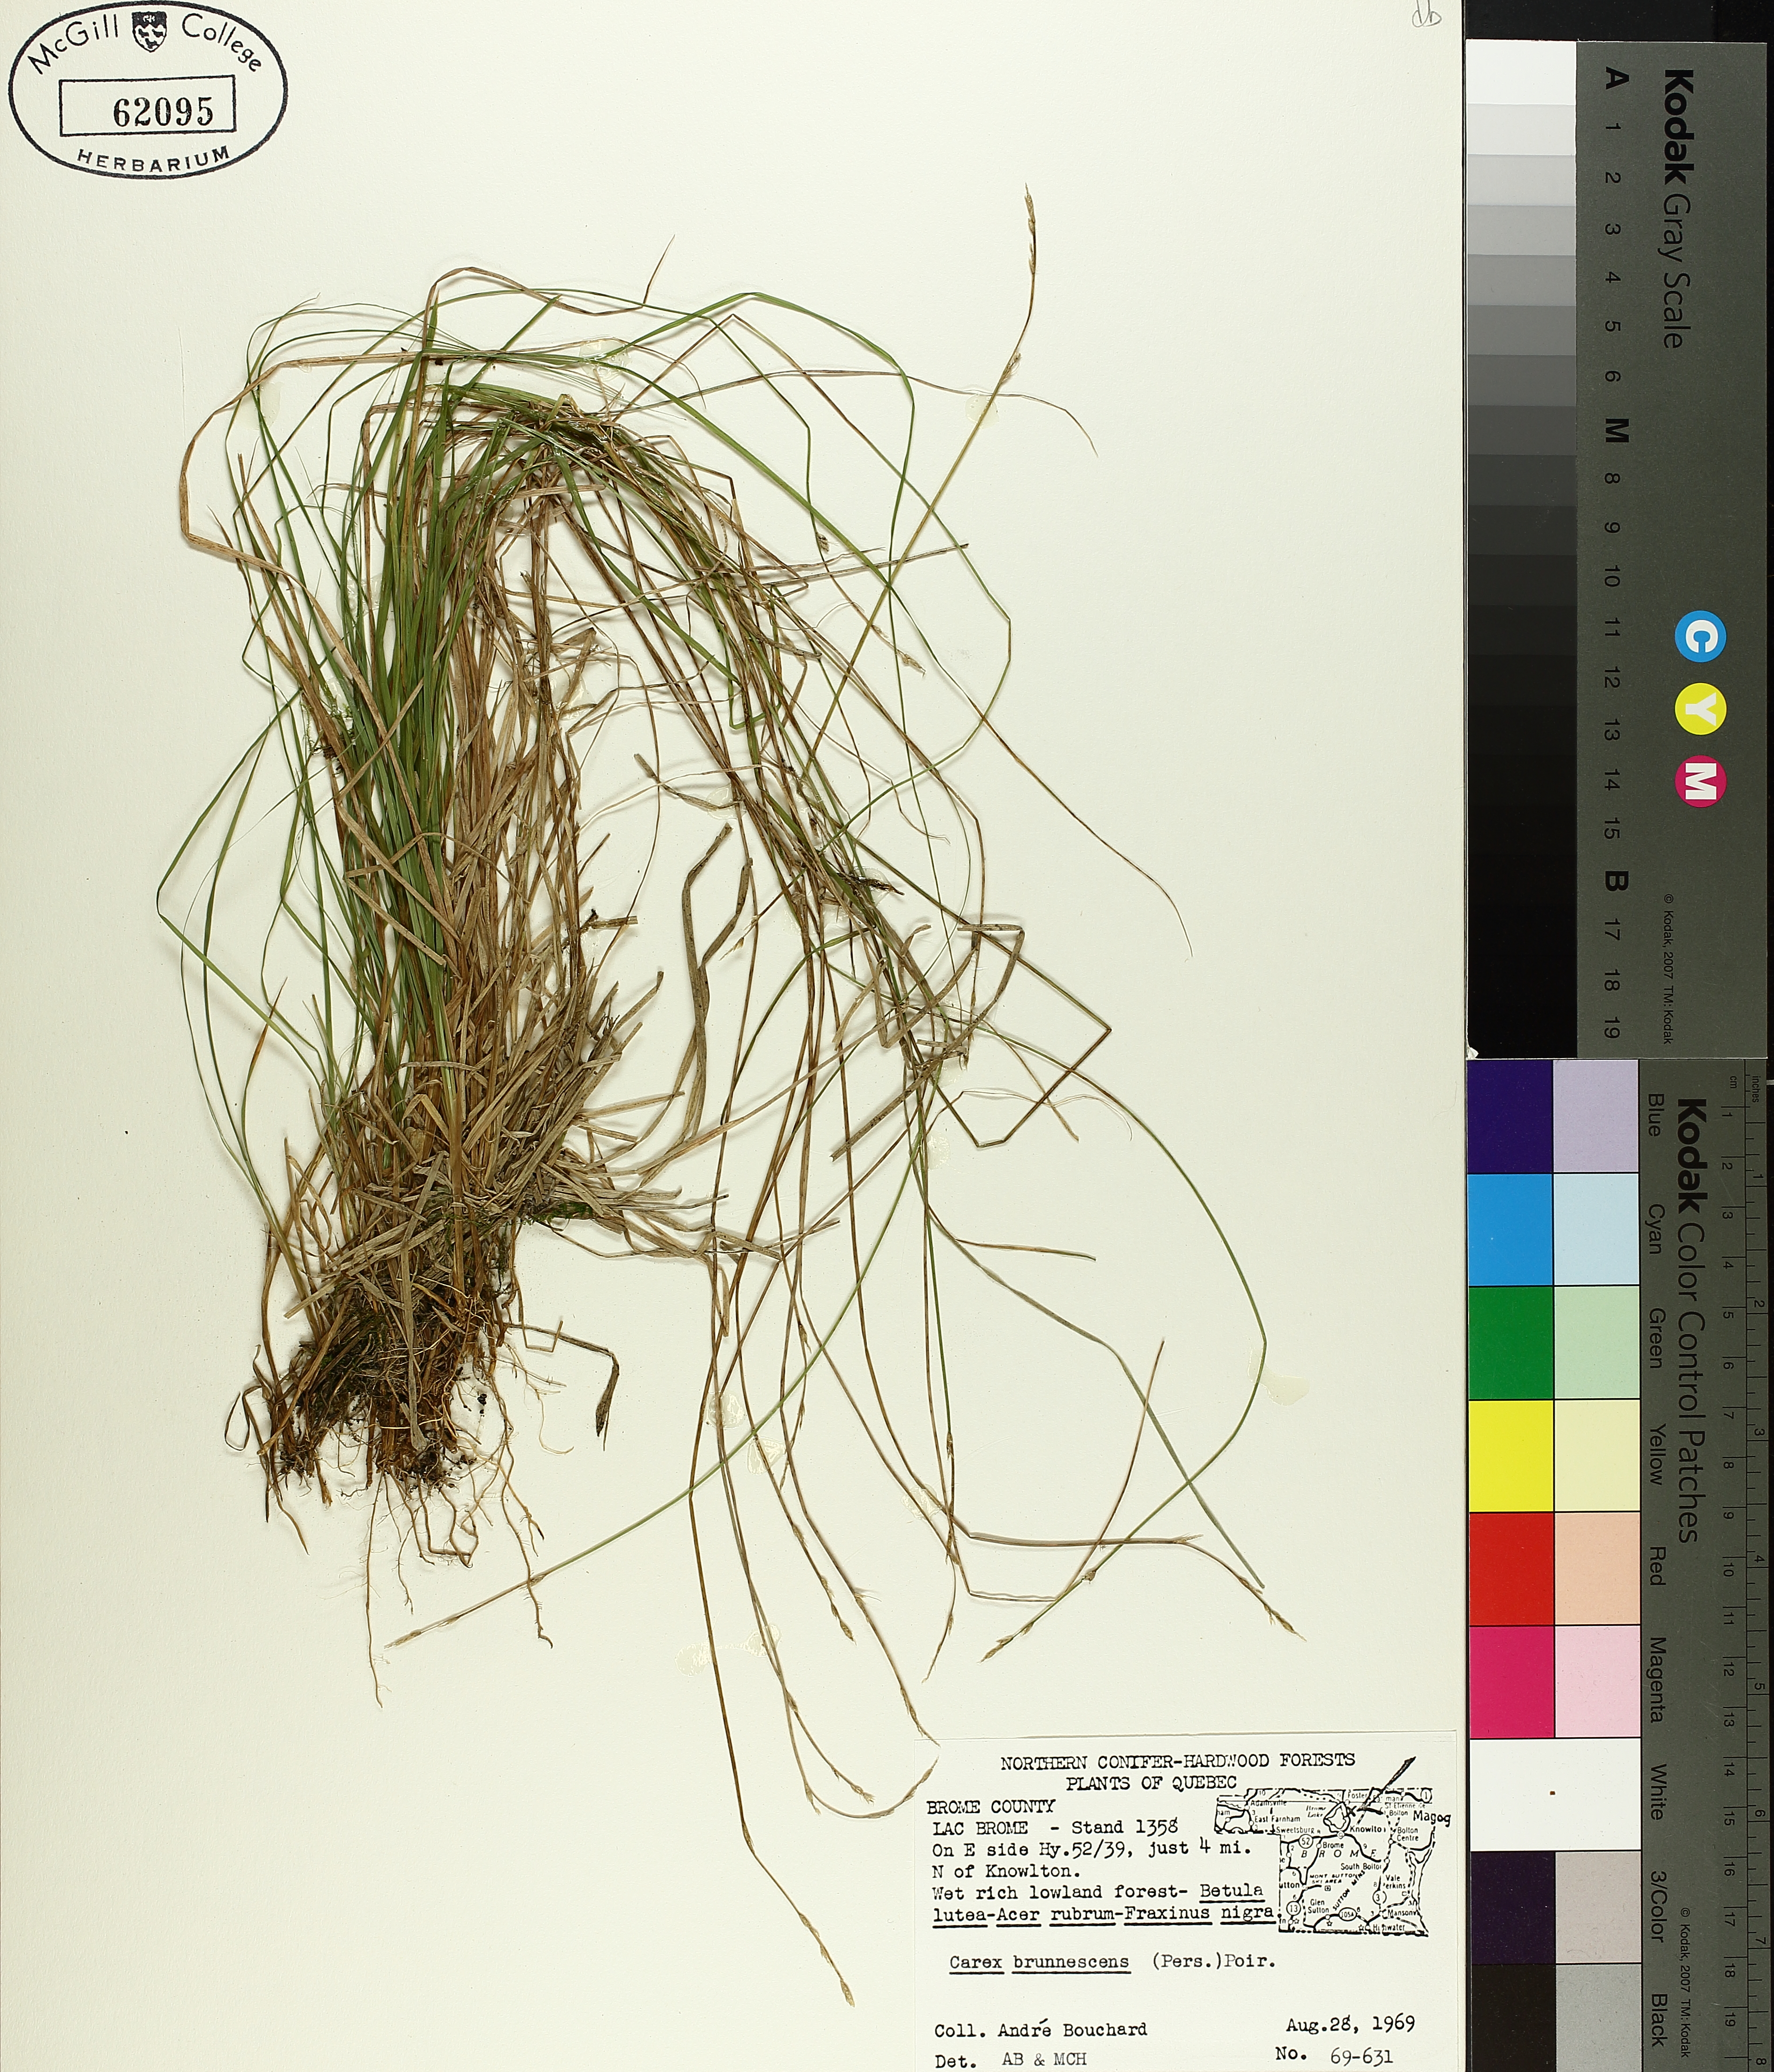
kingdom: Plantae
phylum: Tracheophyta
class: Liliopsida
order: Poales
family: Cyperaceae
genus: Carex
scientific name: Carex brunnescens
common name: Brown sedge
